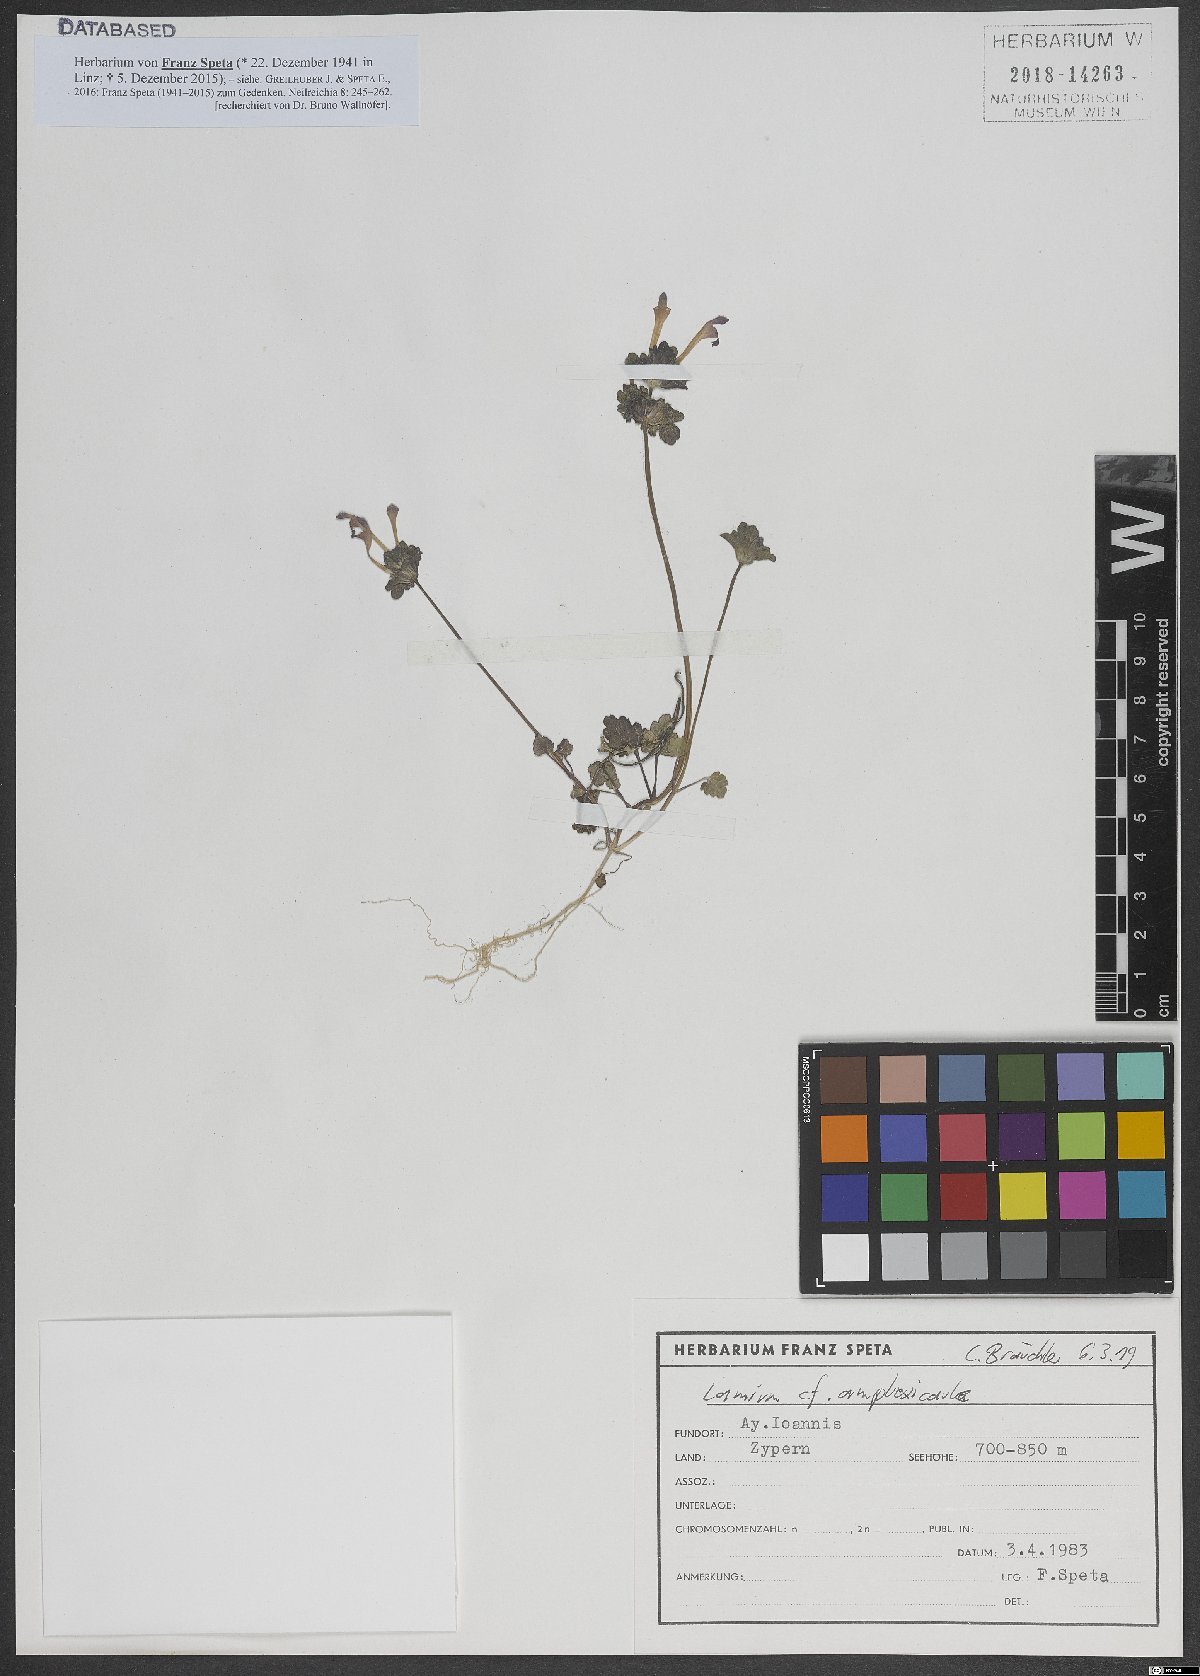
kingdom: Plantae
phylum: Tracheophyta
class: Magnoliopsida
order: Lamiales
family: Lamiaceae
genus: Lamium
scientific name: Lamium amplexicaule
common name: Henbit dead-nettle
